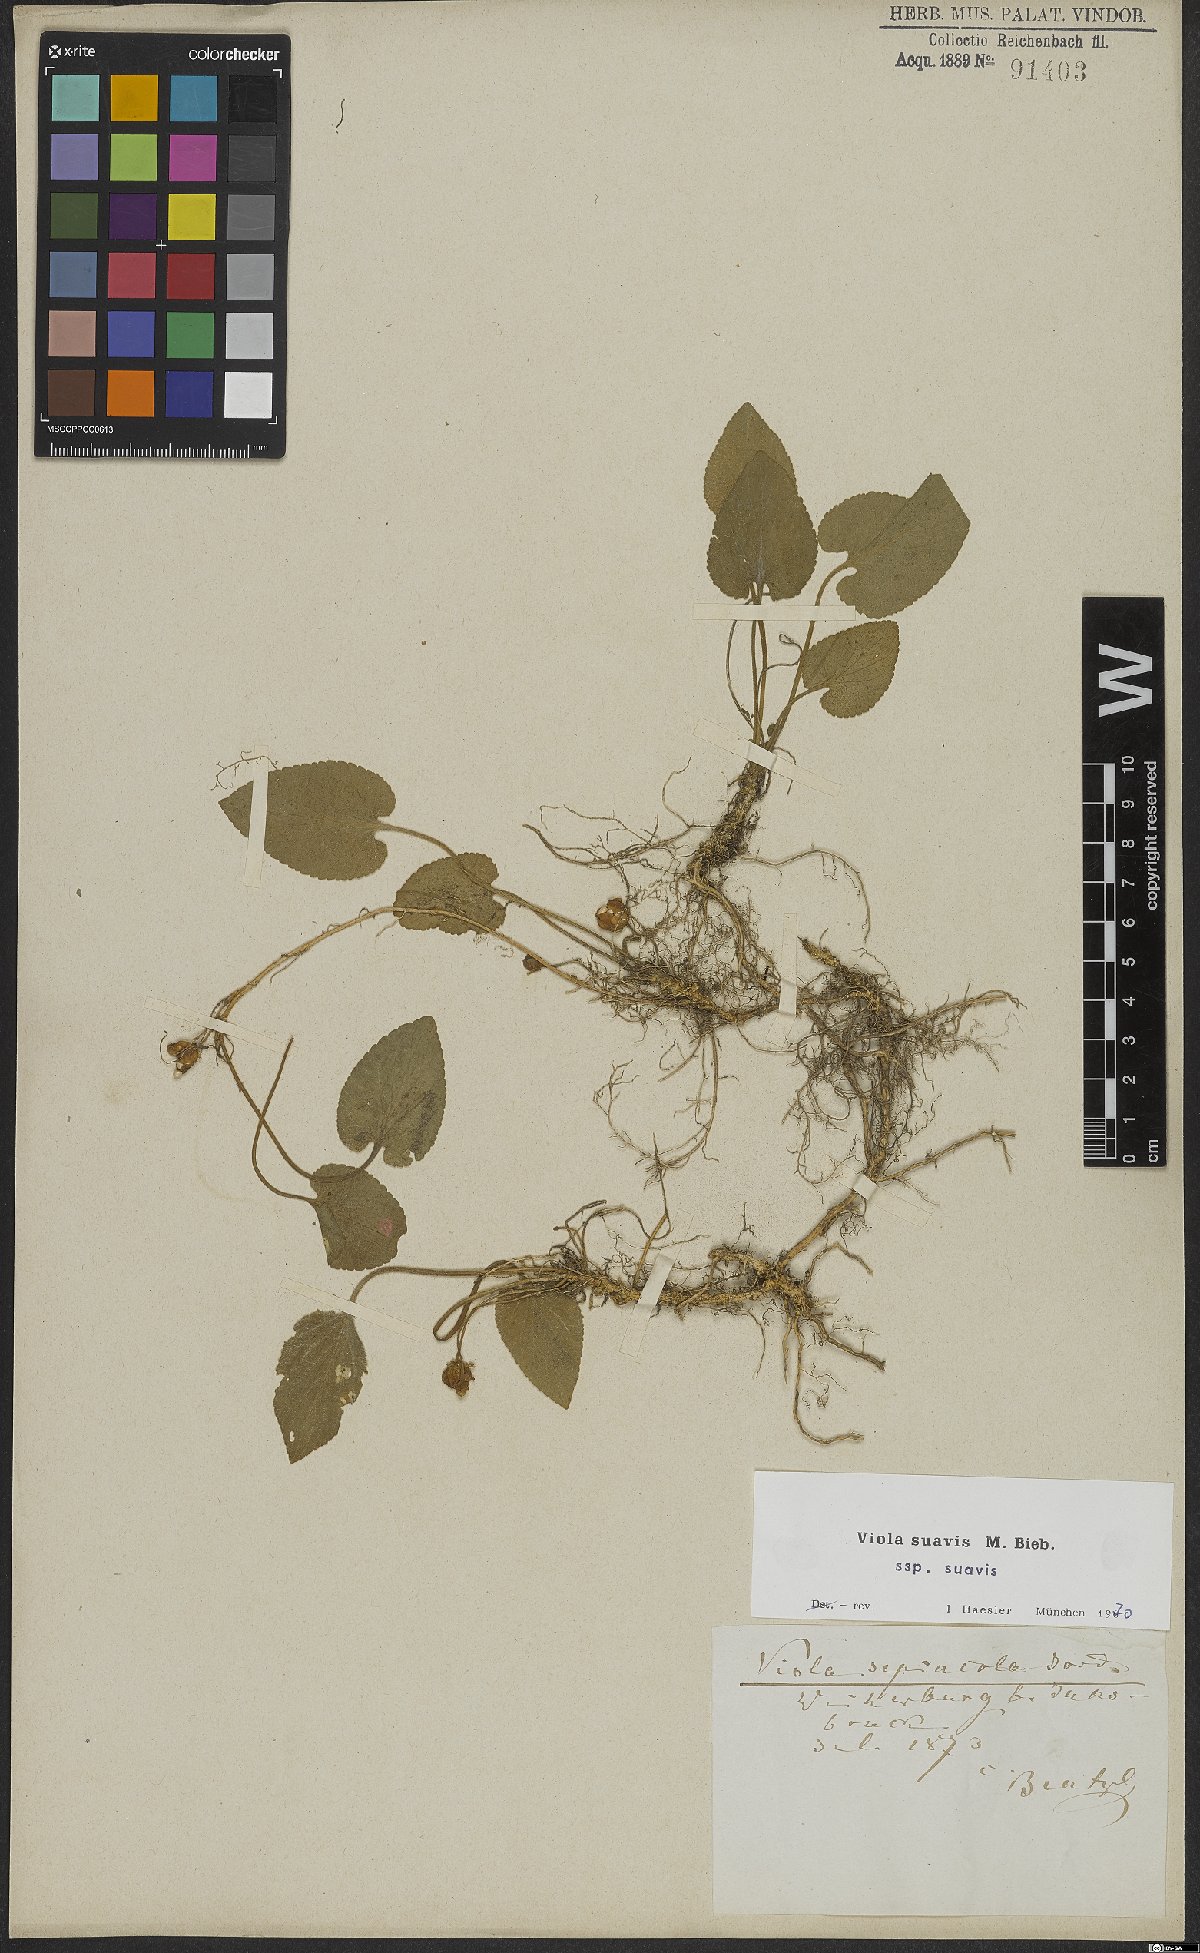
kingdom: Plantae
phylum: Tracheophyta
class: Magnoliopsida
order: Malpighiales
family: Violaceae
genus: Viola
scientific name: Viola suavis
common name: Russian violet
